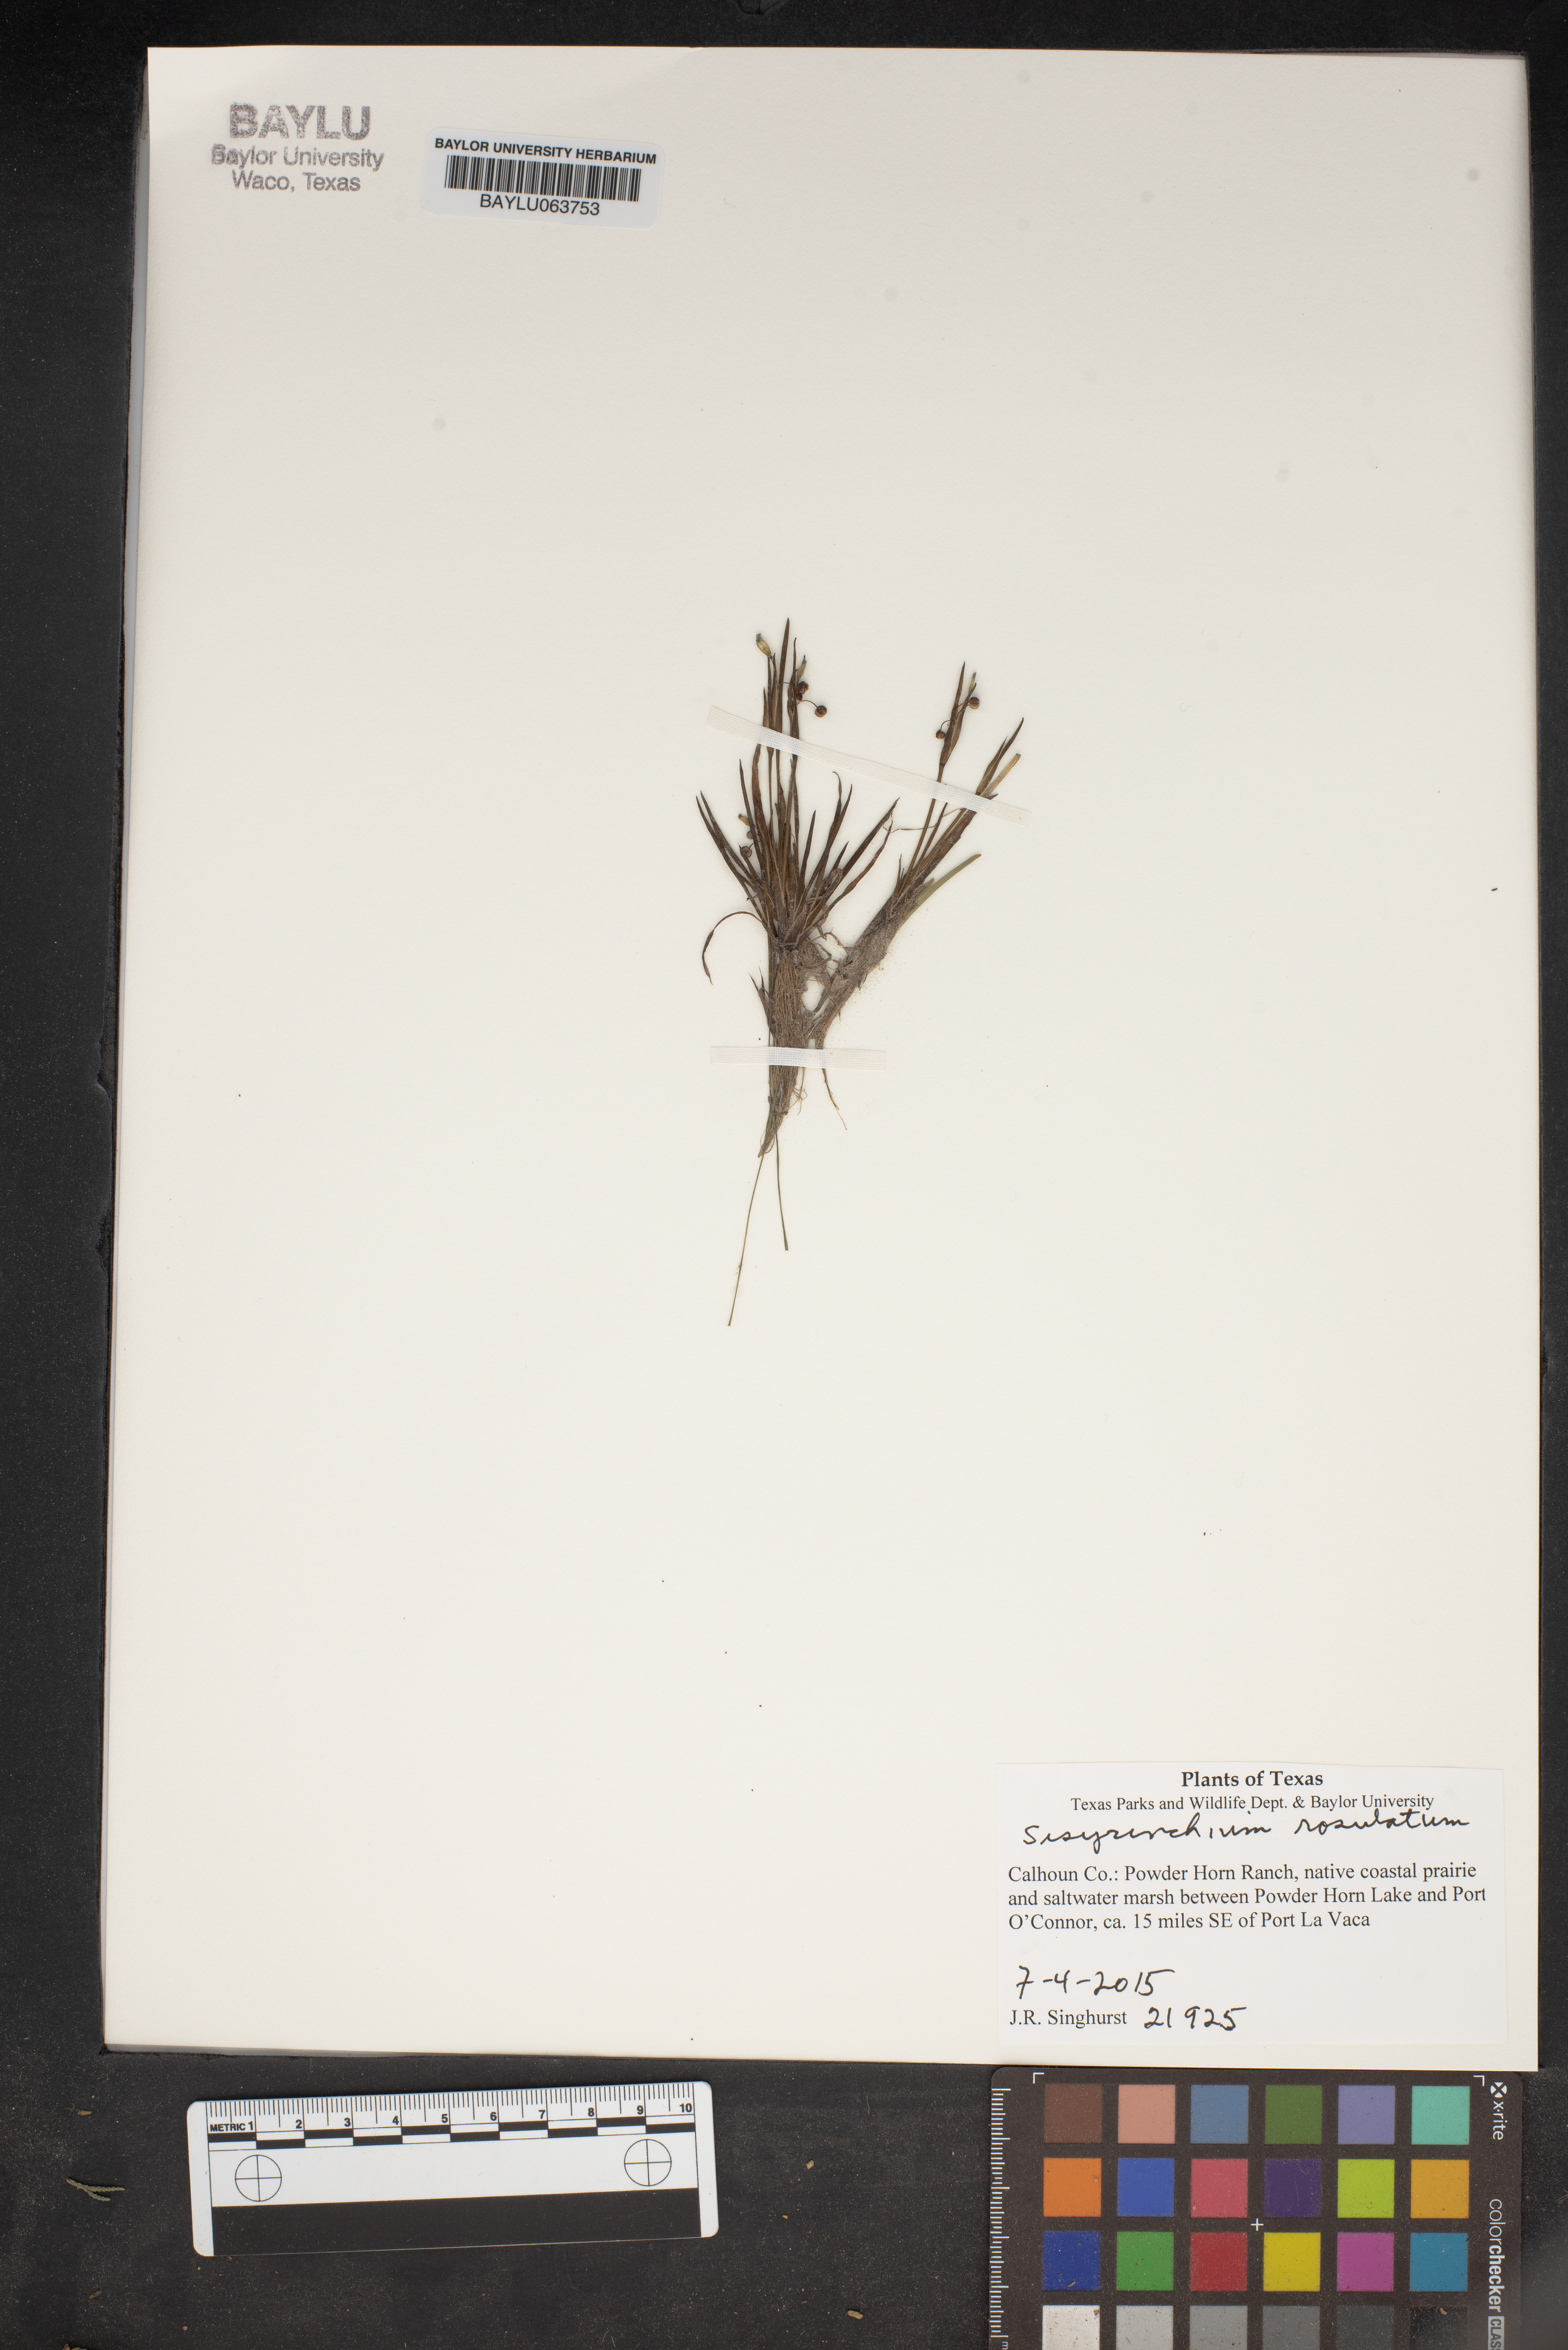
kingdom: Plantae
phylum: Tracheophyta
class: Liliopsida
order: Asparagales
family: Iridaceae
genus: Sisyrinchium
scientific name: Sisyrinchium rosulatum
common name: Annual blue-eyed grass
